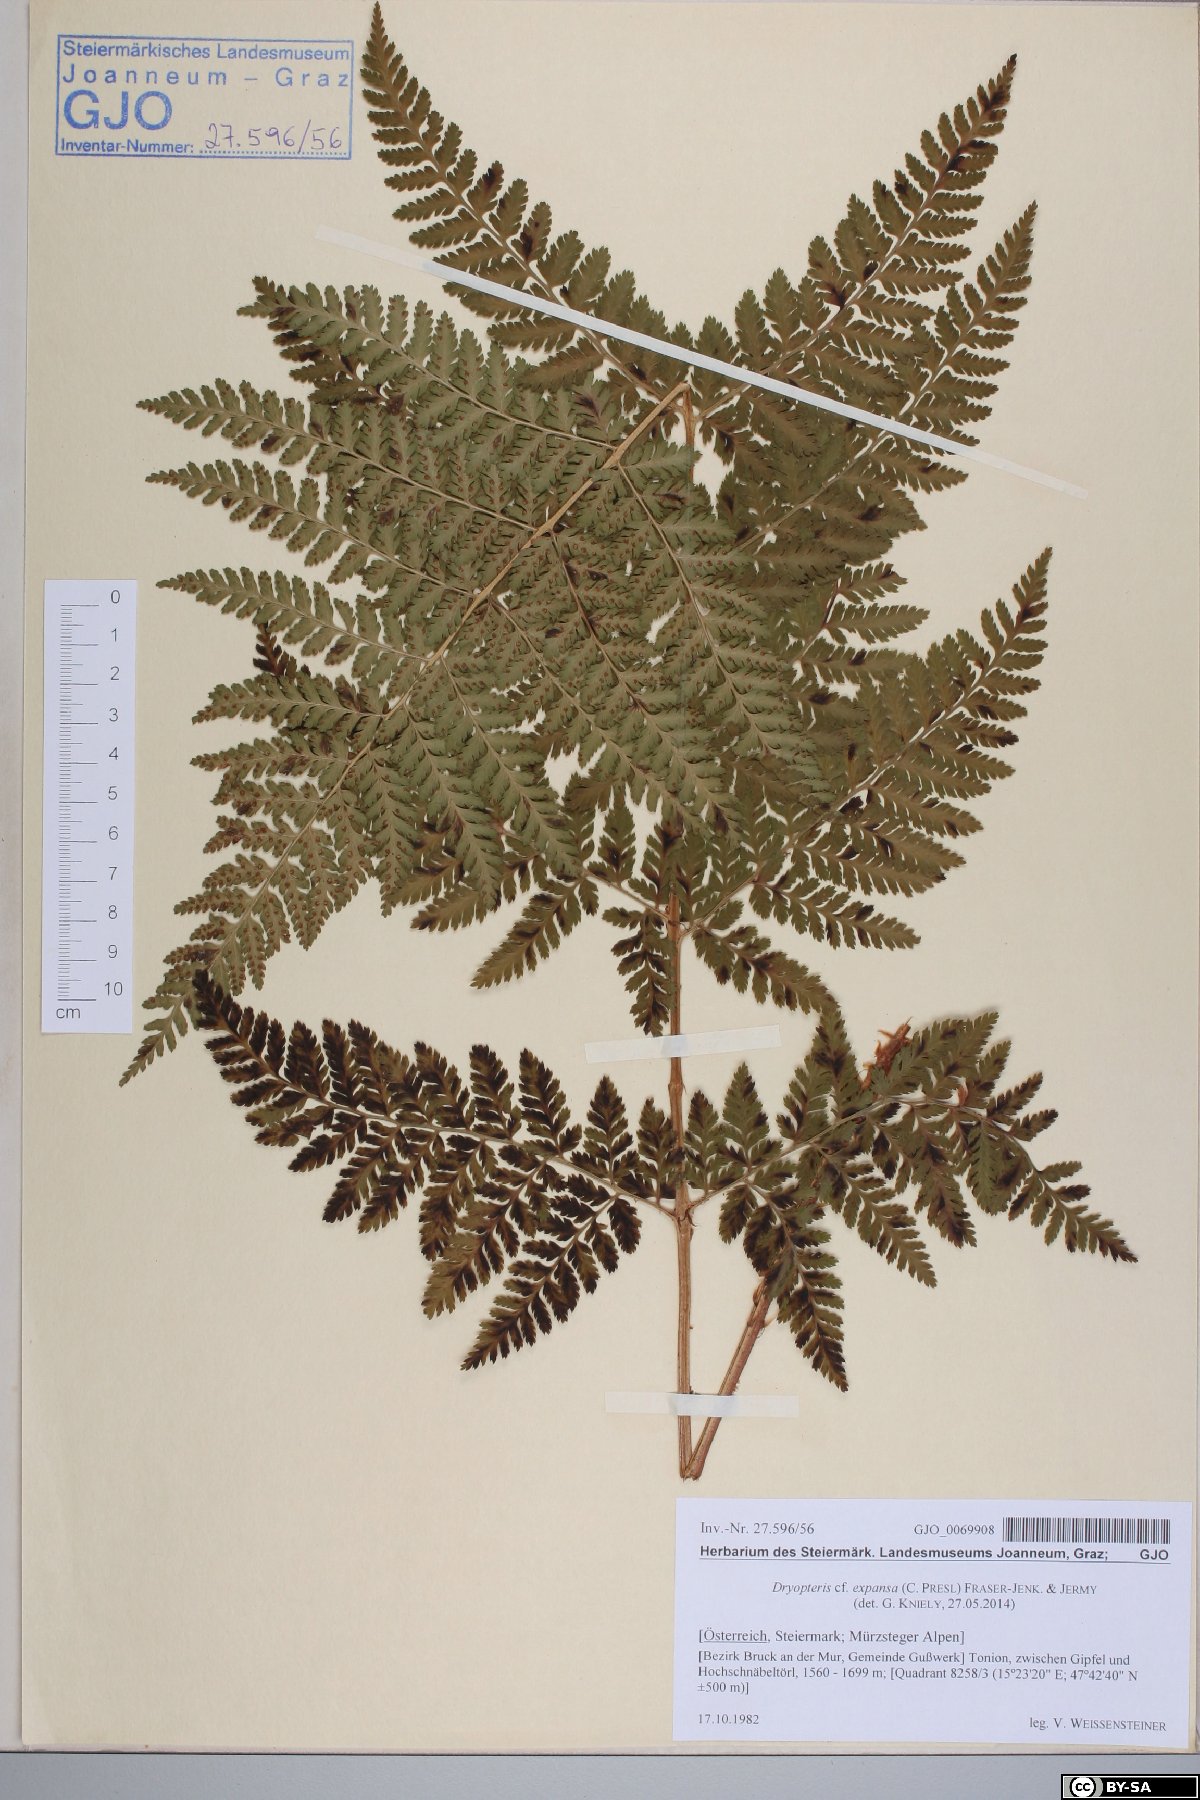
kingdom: Plantae
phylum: Tracheophyta
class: Polypodiopsida
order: Polypodiales
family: Dryopteridaceae
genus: Dryopteris
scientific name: Dryopteris expansa
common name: Northern buckler fern
